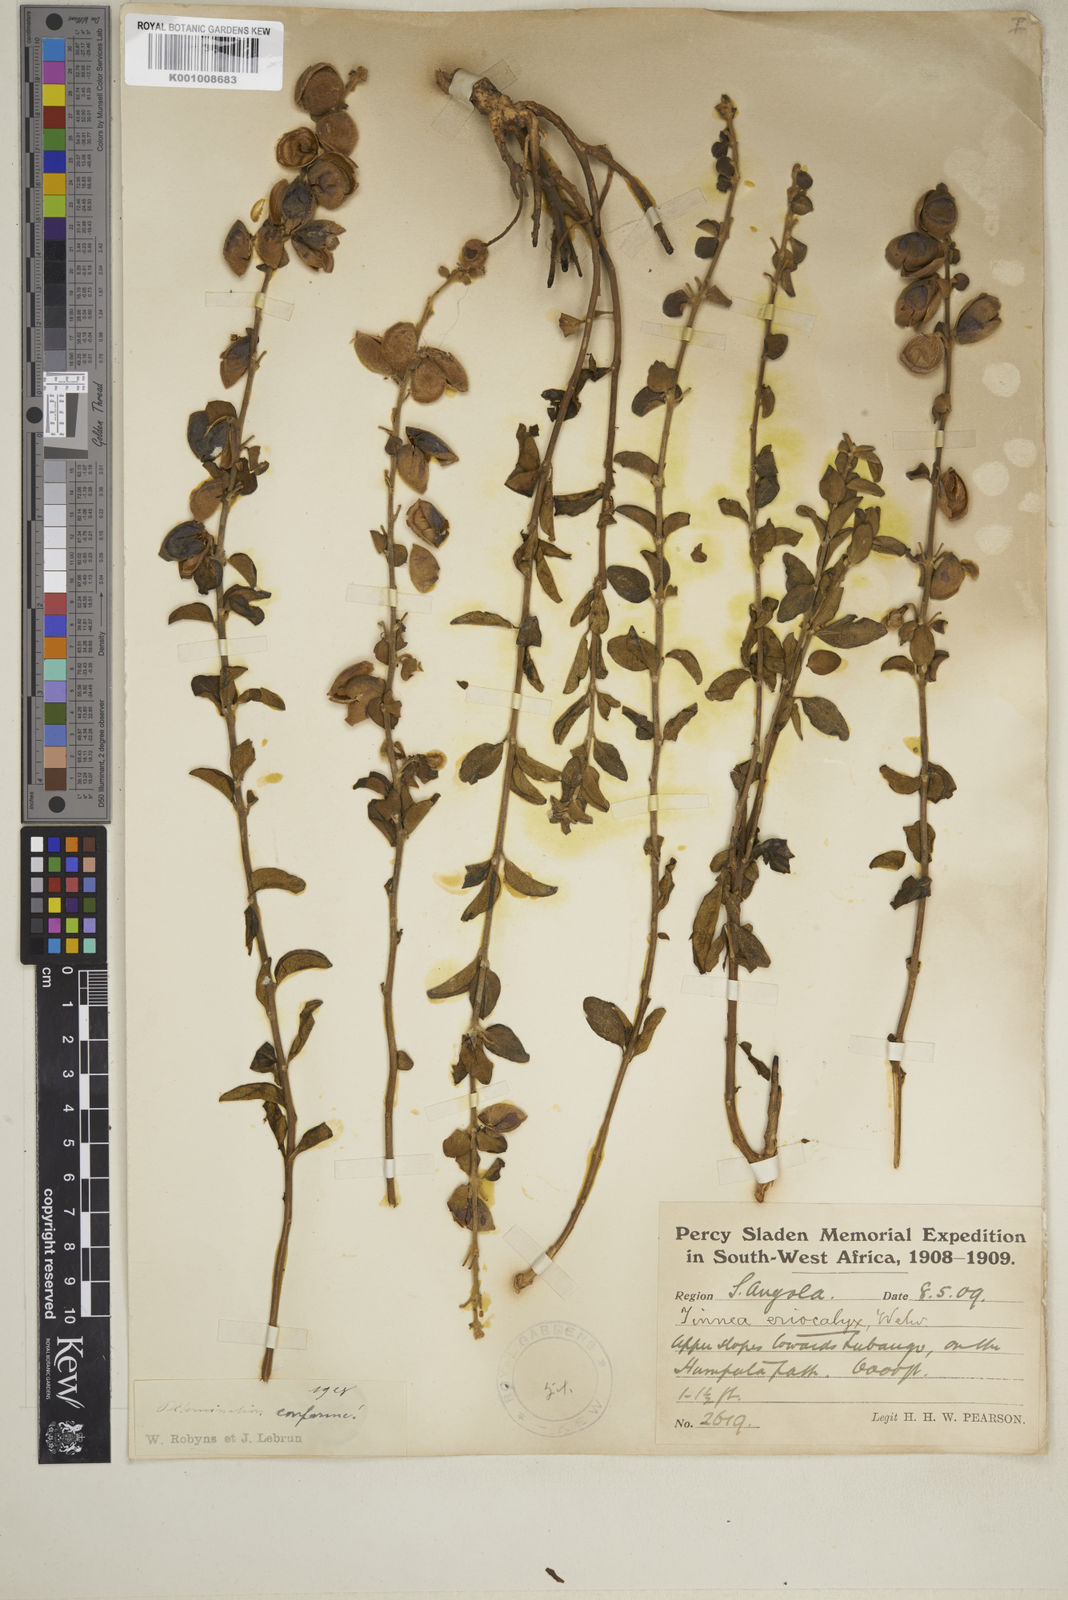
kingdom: Plantae
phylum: Tracheophyta
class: Magnoliopsida
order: Lamiales
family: Lamiaceae
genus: Tinnea
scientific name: Tinnea eriocalyx
